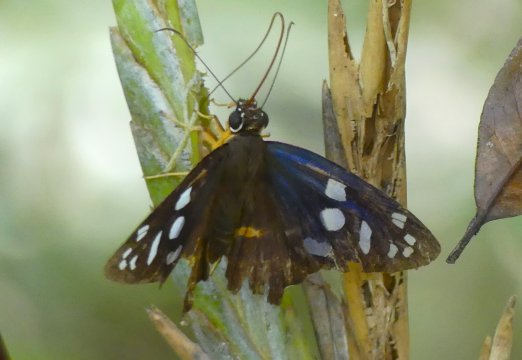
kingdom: Animalia
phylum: Arthropoda
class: Insecta
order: Lepidoptera
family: Hesperiidae
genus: Phareas
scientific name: Phareas burnsi
